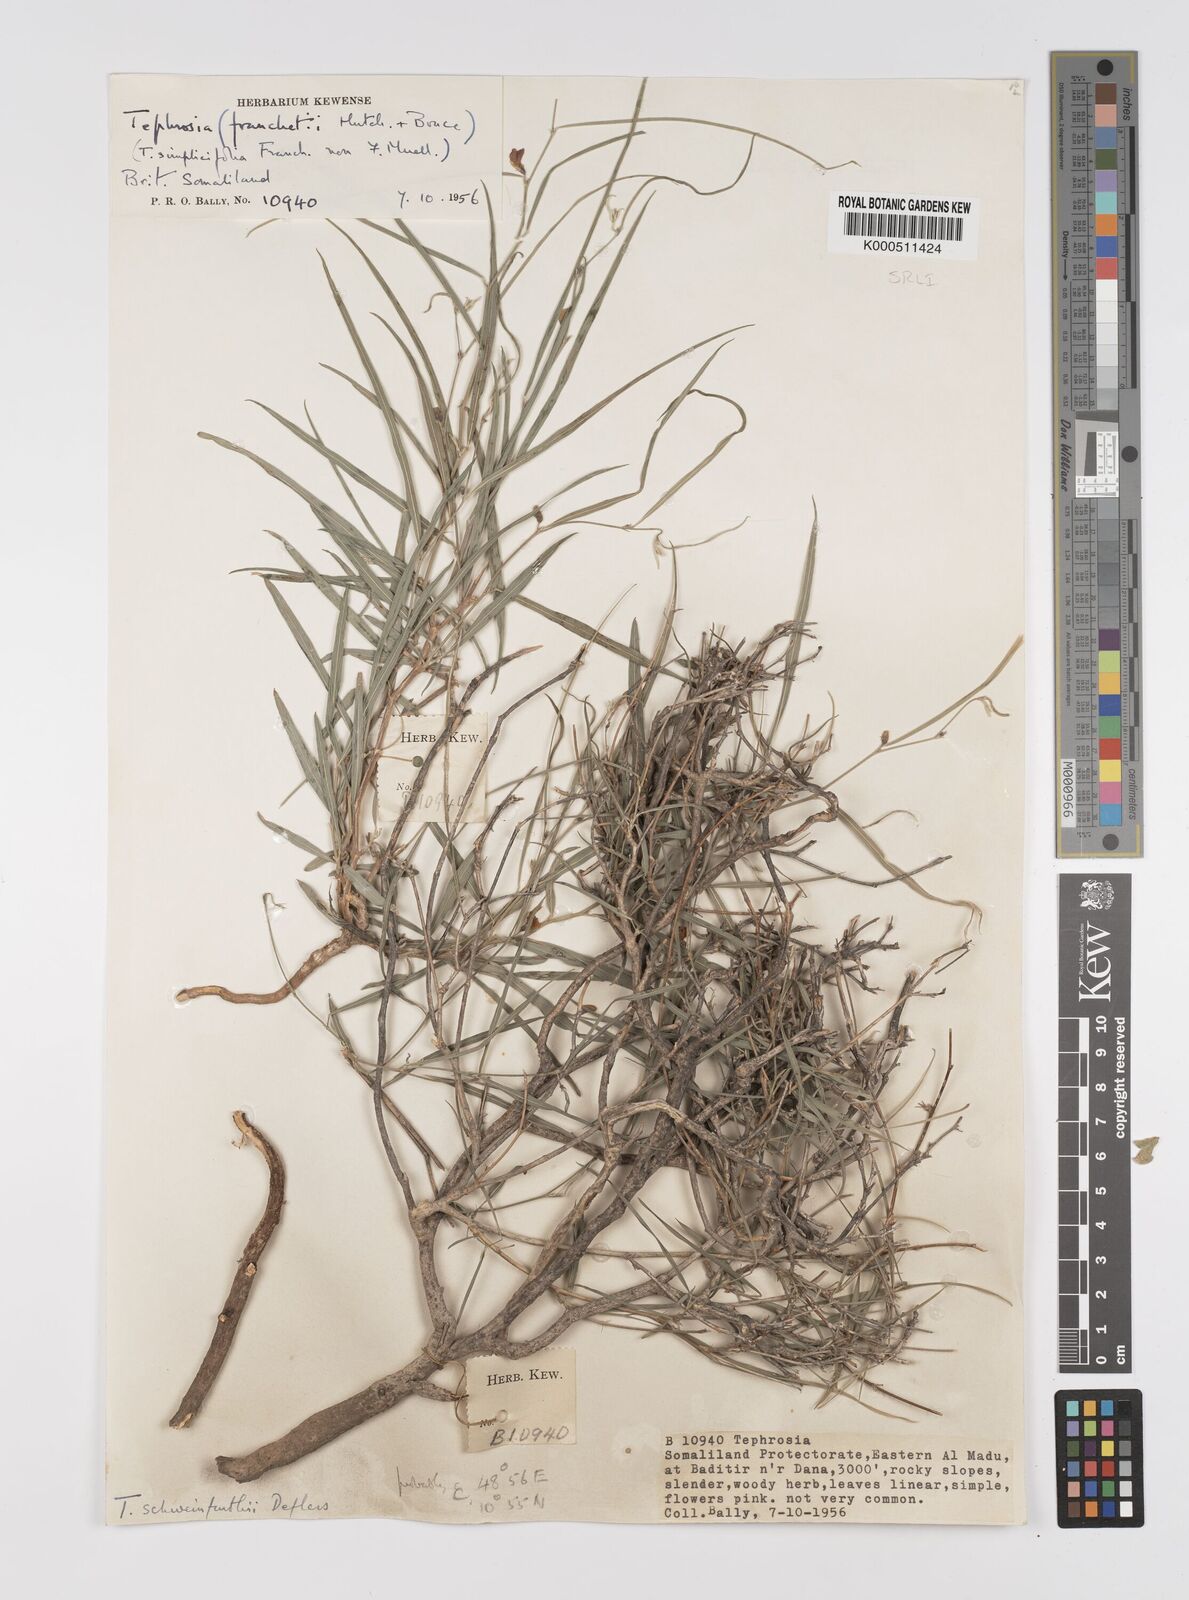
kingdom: Plantae
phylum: Tracheophyta
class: Magnoliopsida
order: Fabales
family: Fabaceae
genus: Tephrosia
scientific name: Tephrosia heterophylla
